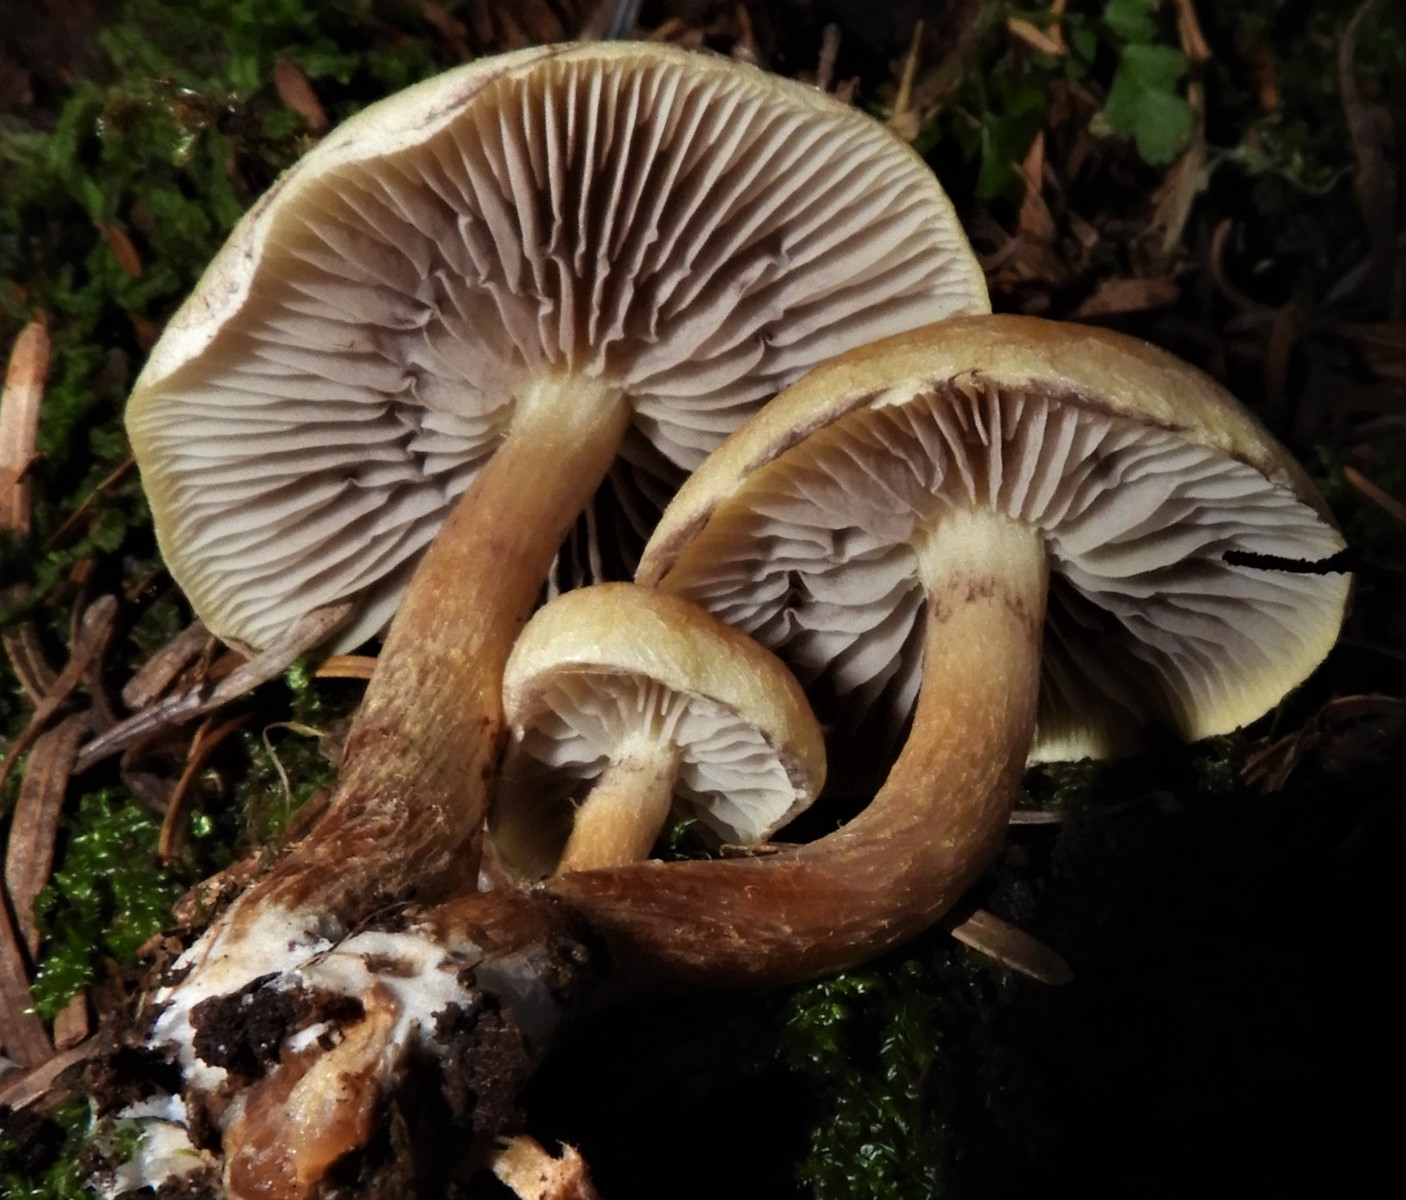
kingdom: Fungi
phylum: Basidiomycota
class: Agaricomycetes
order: Agaricales
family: Strophariaceae
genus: Hypholoma
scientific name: Hypholoma fasciculare
